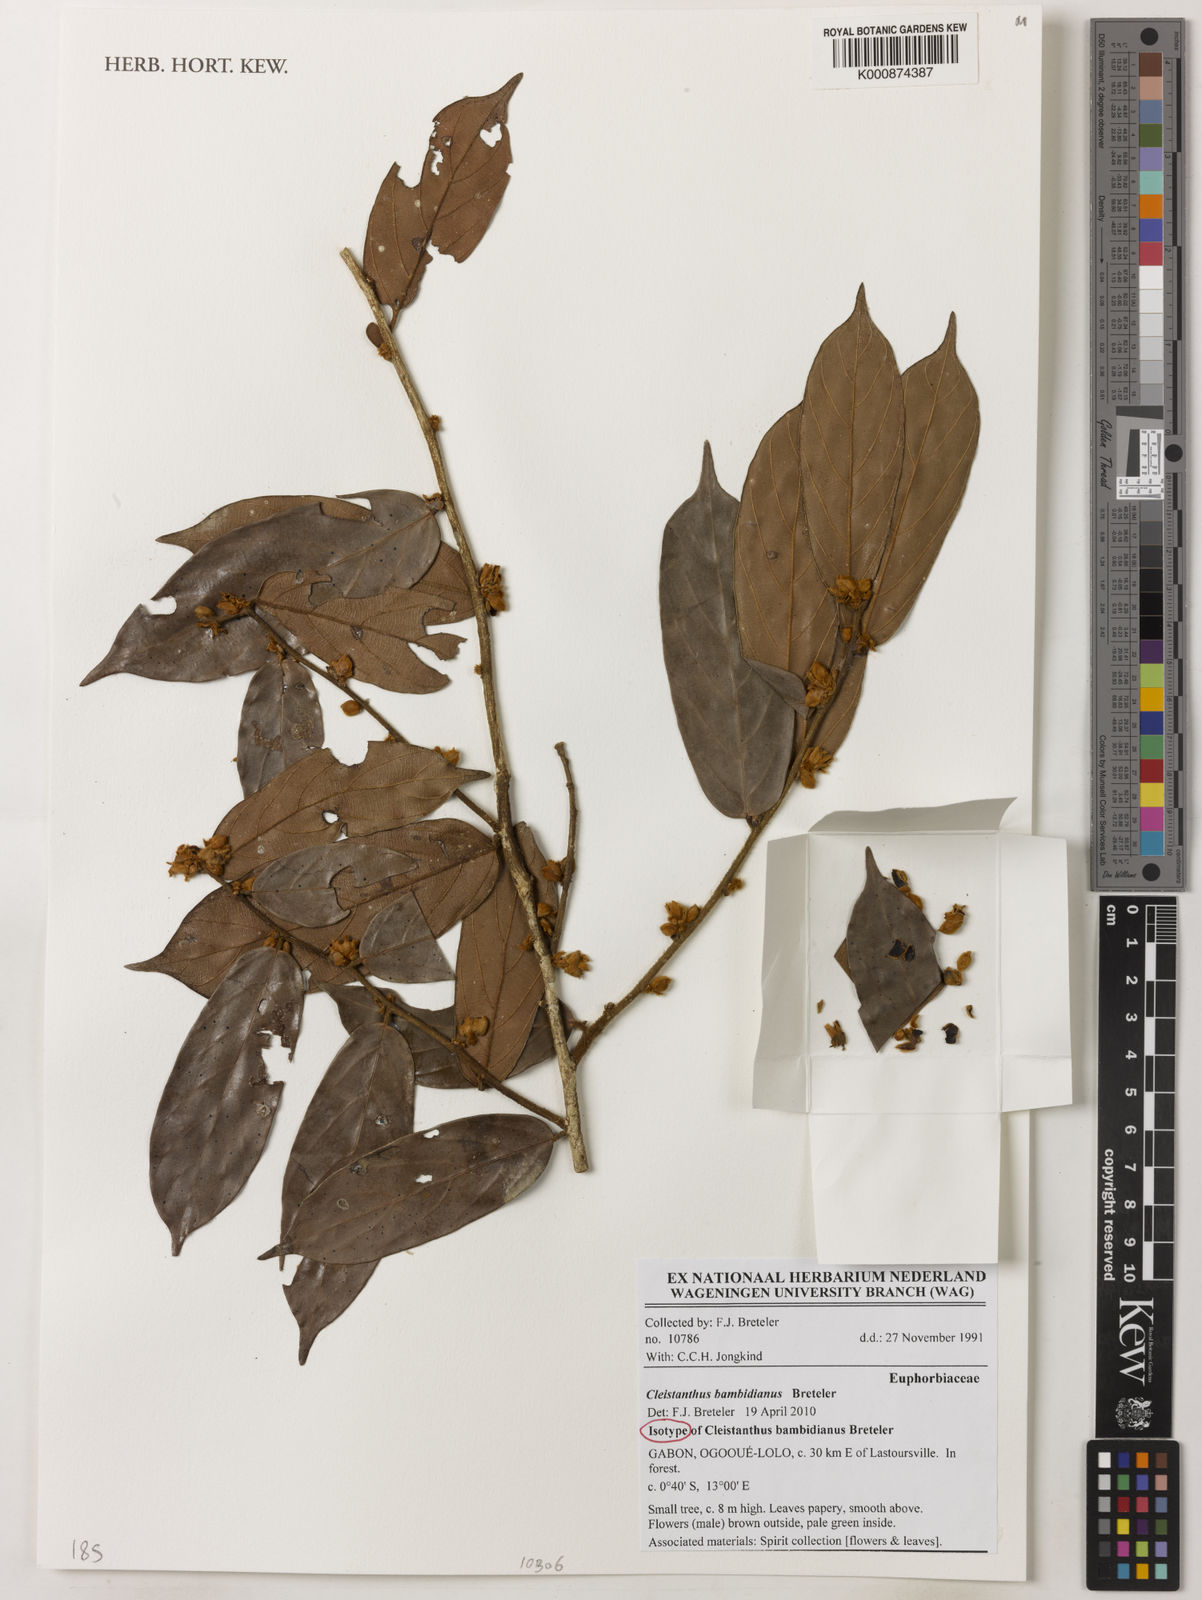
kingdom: Plantae
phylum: Tracheophyta
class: Magnoliopsida
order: Malpighiales
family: Phyllanthaceae
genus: Cleistanthus
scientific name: Cleistanthus bambidianus
